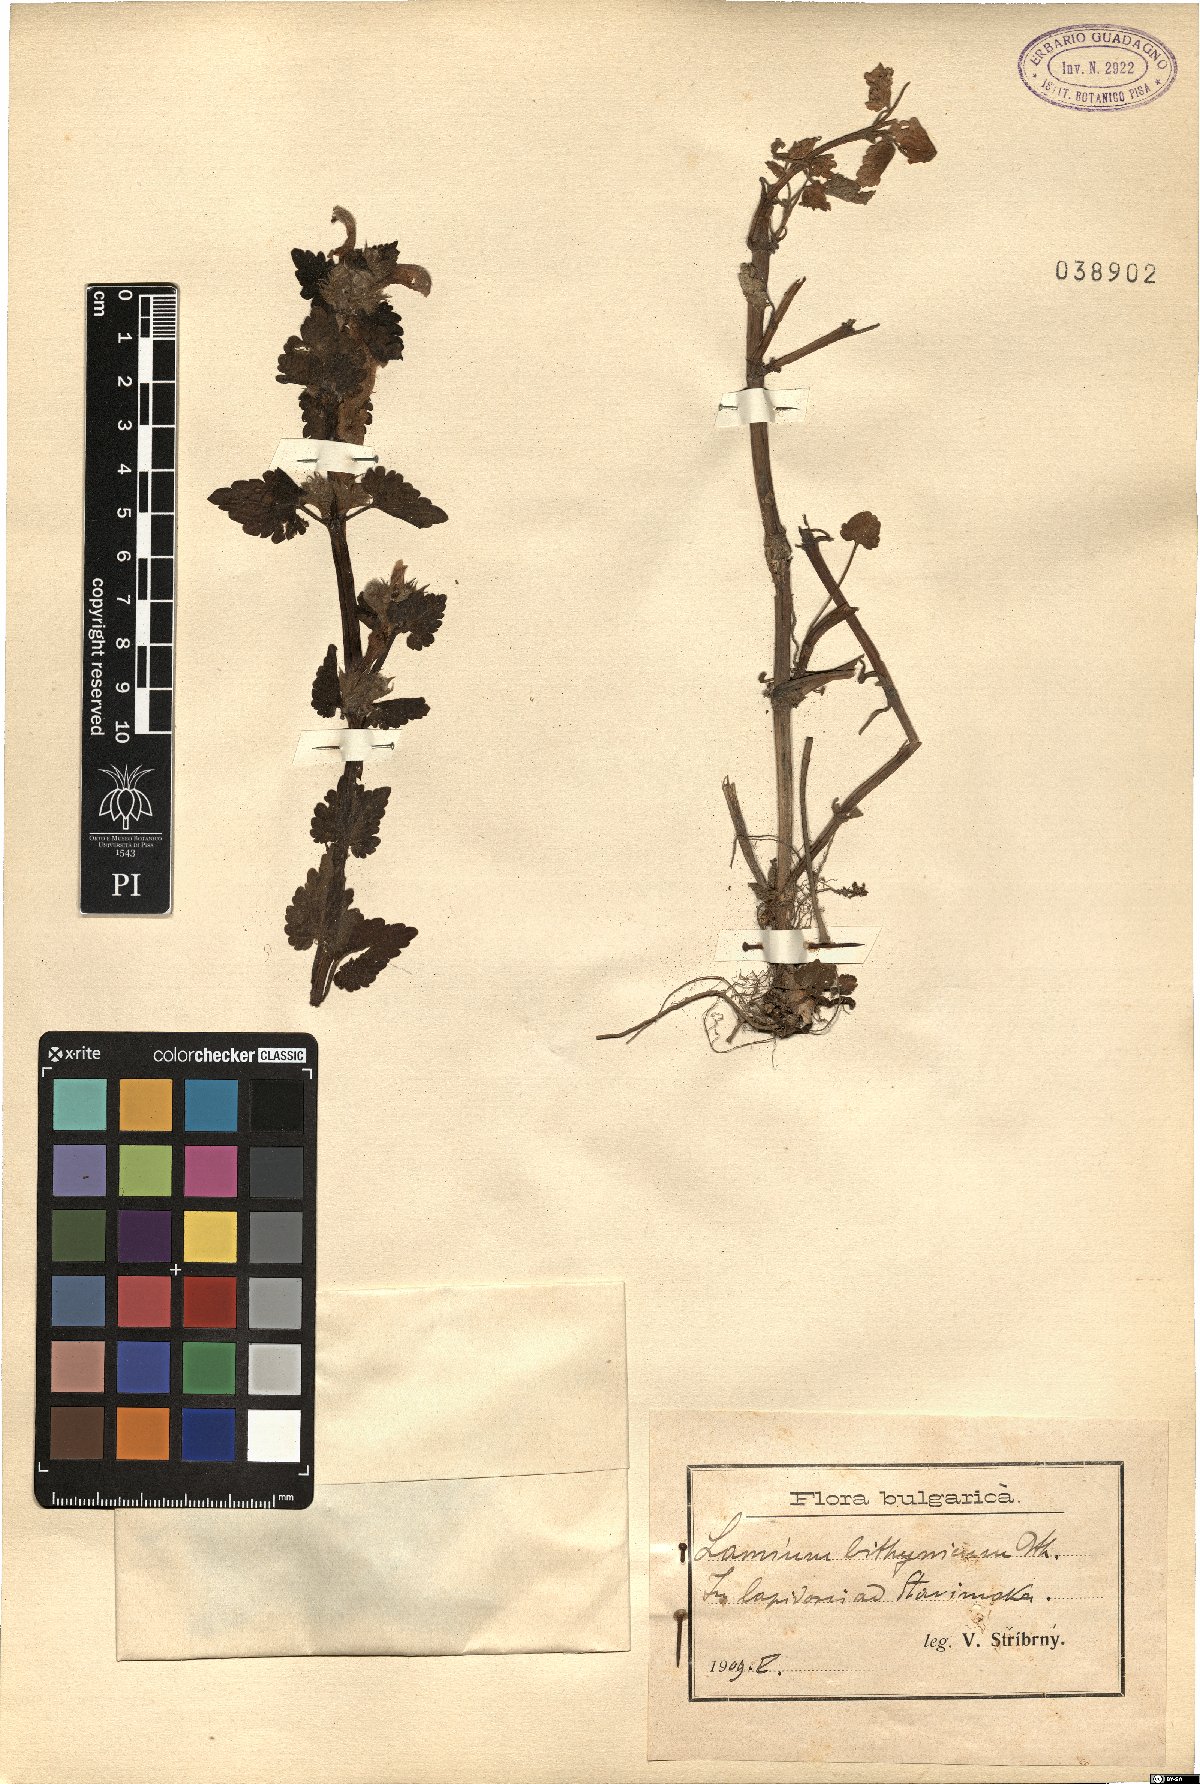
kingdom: Plantae
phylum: Tracheophyta
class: Magnoliopsida
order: Lamiales
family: Lamiaceae
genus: Lamium
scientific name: Lamium garganicum
